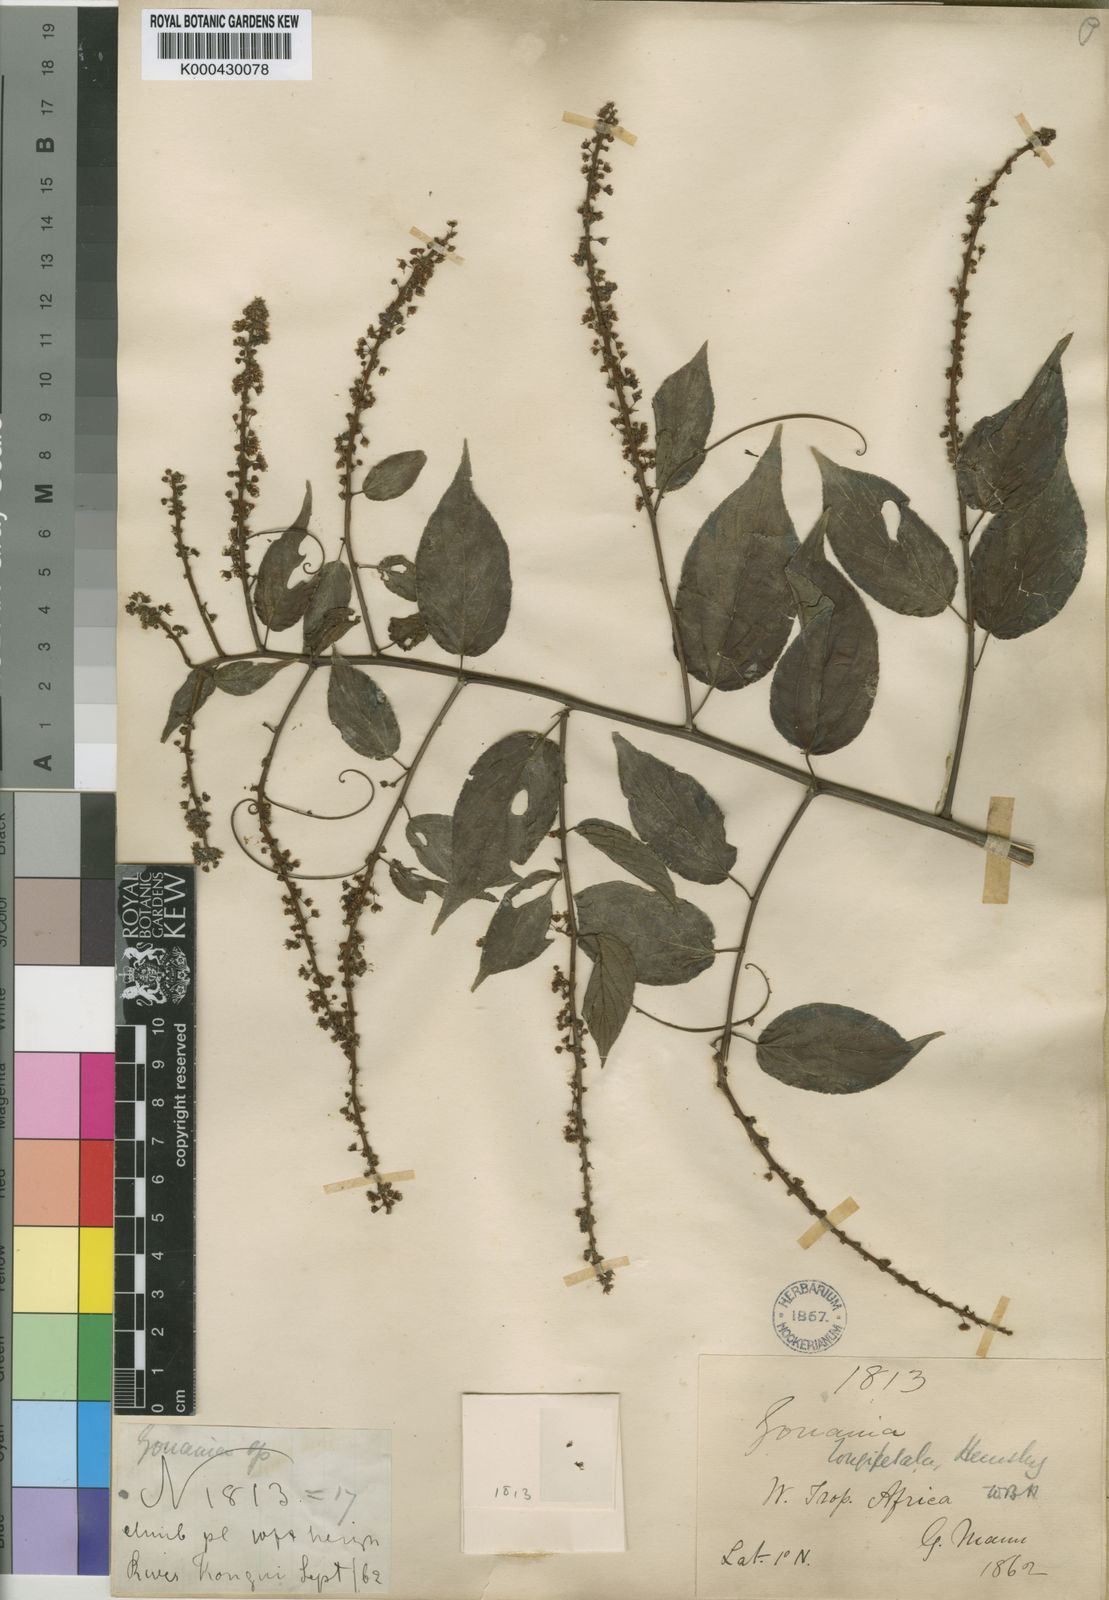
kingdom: Plantae
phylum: Tracheophyta
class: Magnoliopsida
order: Rosales
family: Rhamnaceae
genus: Gouania
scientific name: Gouania longipetala
